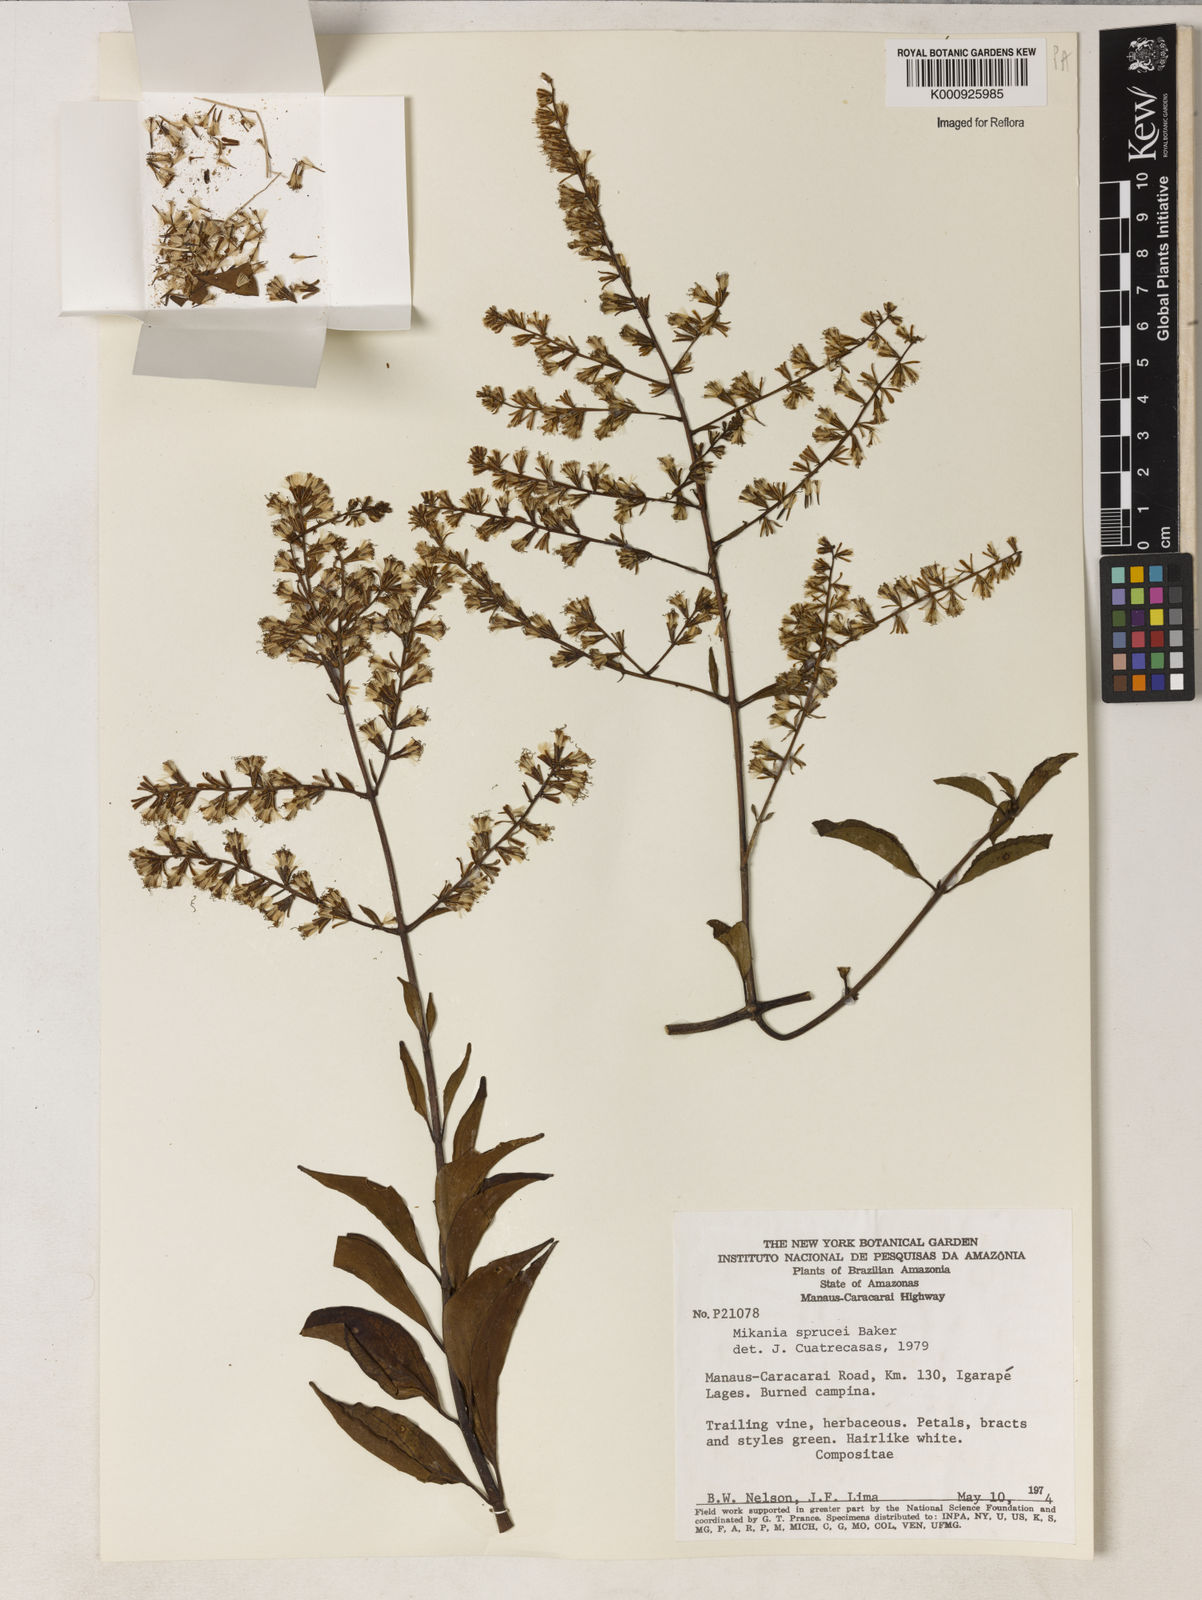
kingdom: Plantae
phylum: Tracheophyta
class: Magnoliopsida
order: Asterales
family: Asteraceae
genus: Mikania
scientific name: Mikania
